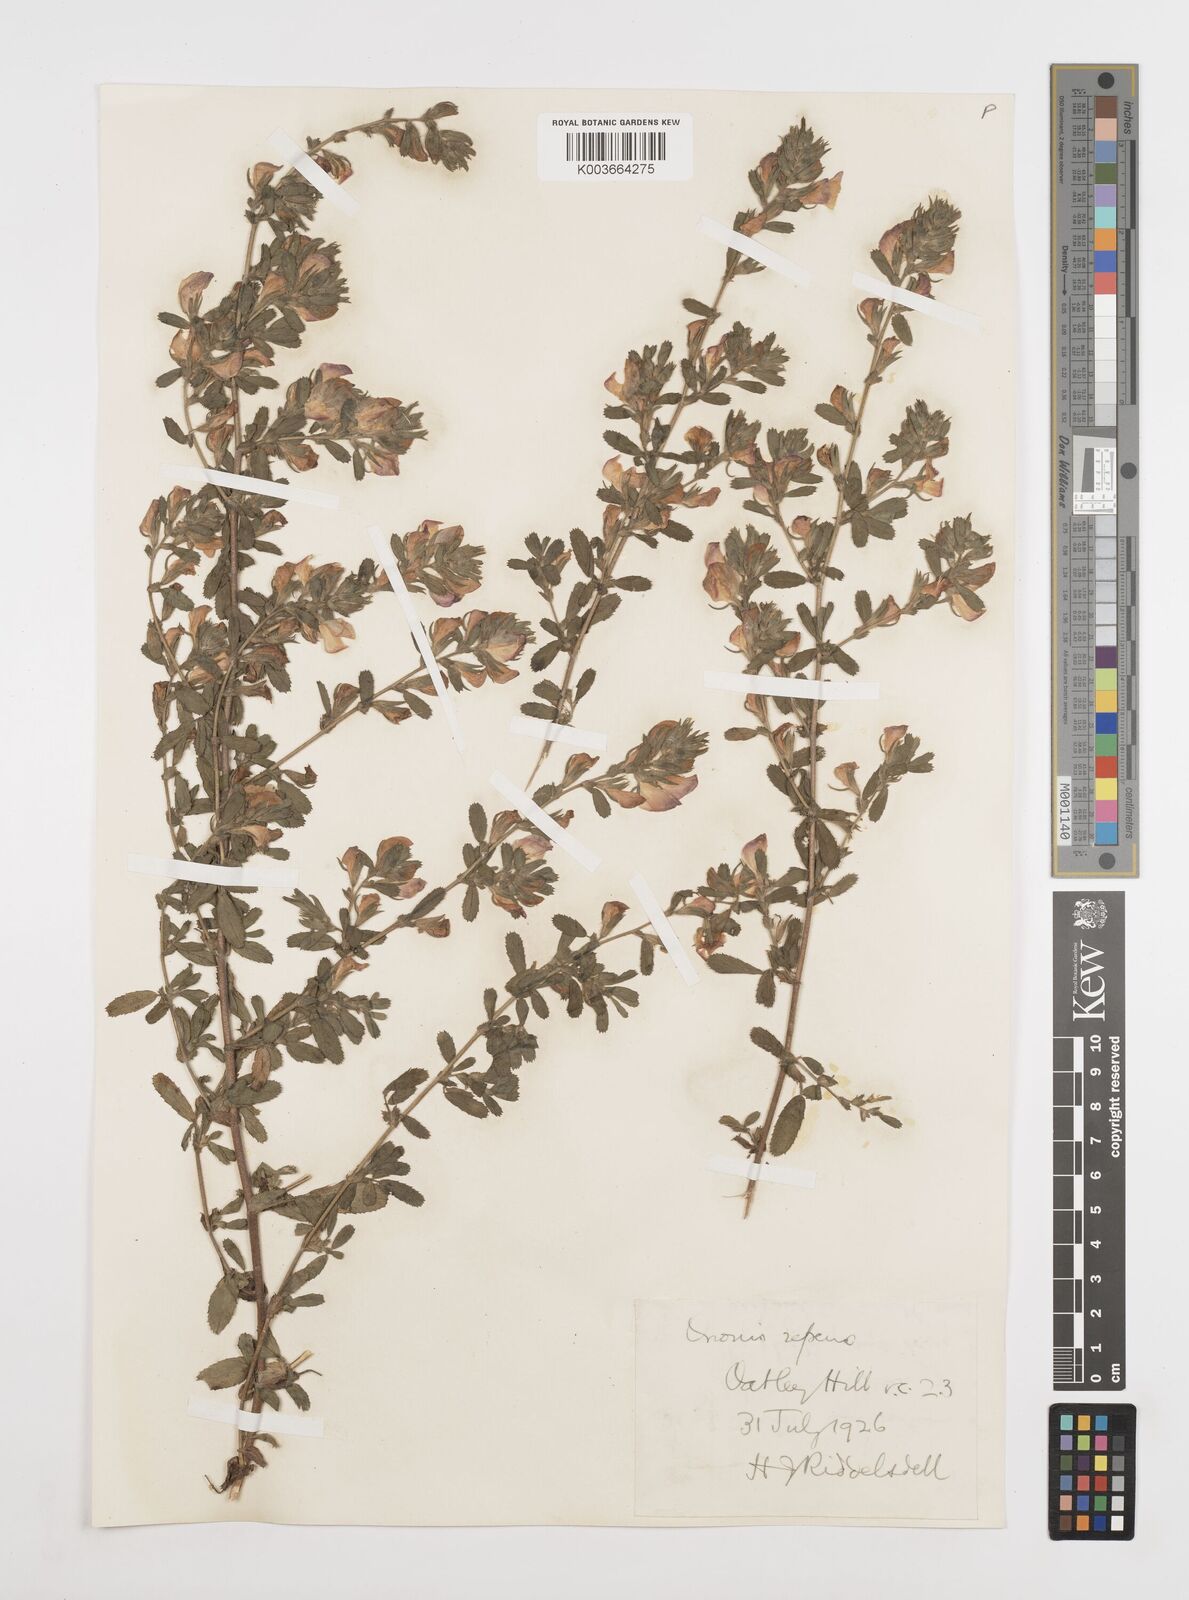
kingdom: Plantae
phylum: Tracheophyta
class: Magnoliopsida
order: Fabales
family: Fabaceae
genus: Ononis
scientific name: Ononis spinosa
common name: Spiny restharrow
